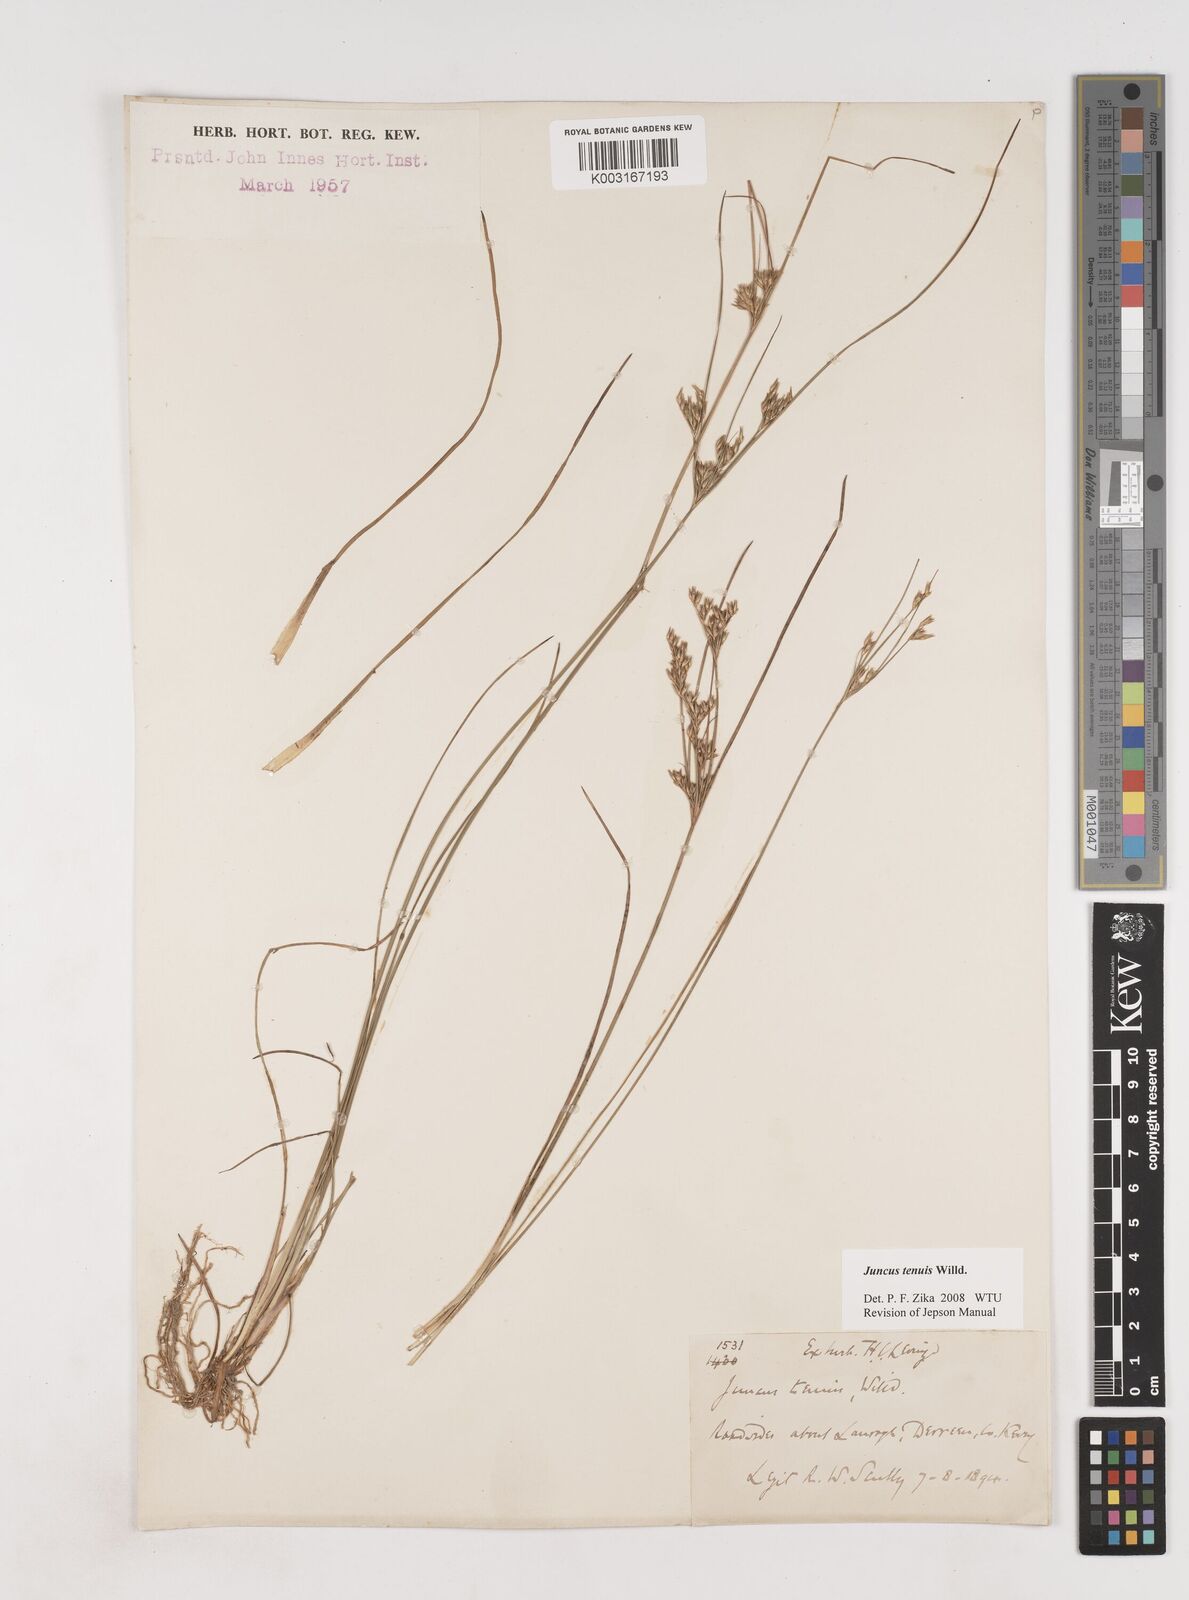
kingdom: Plantae
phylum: Tracheophyta
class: Liliopsida
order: Poales
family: Juncaceae
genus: Juncus
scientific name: Juncus tenuis
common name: Slender rush
